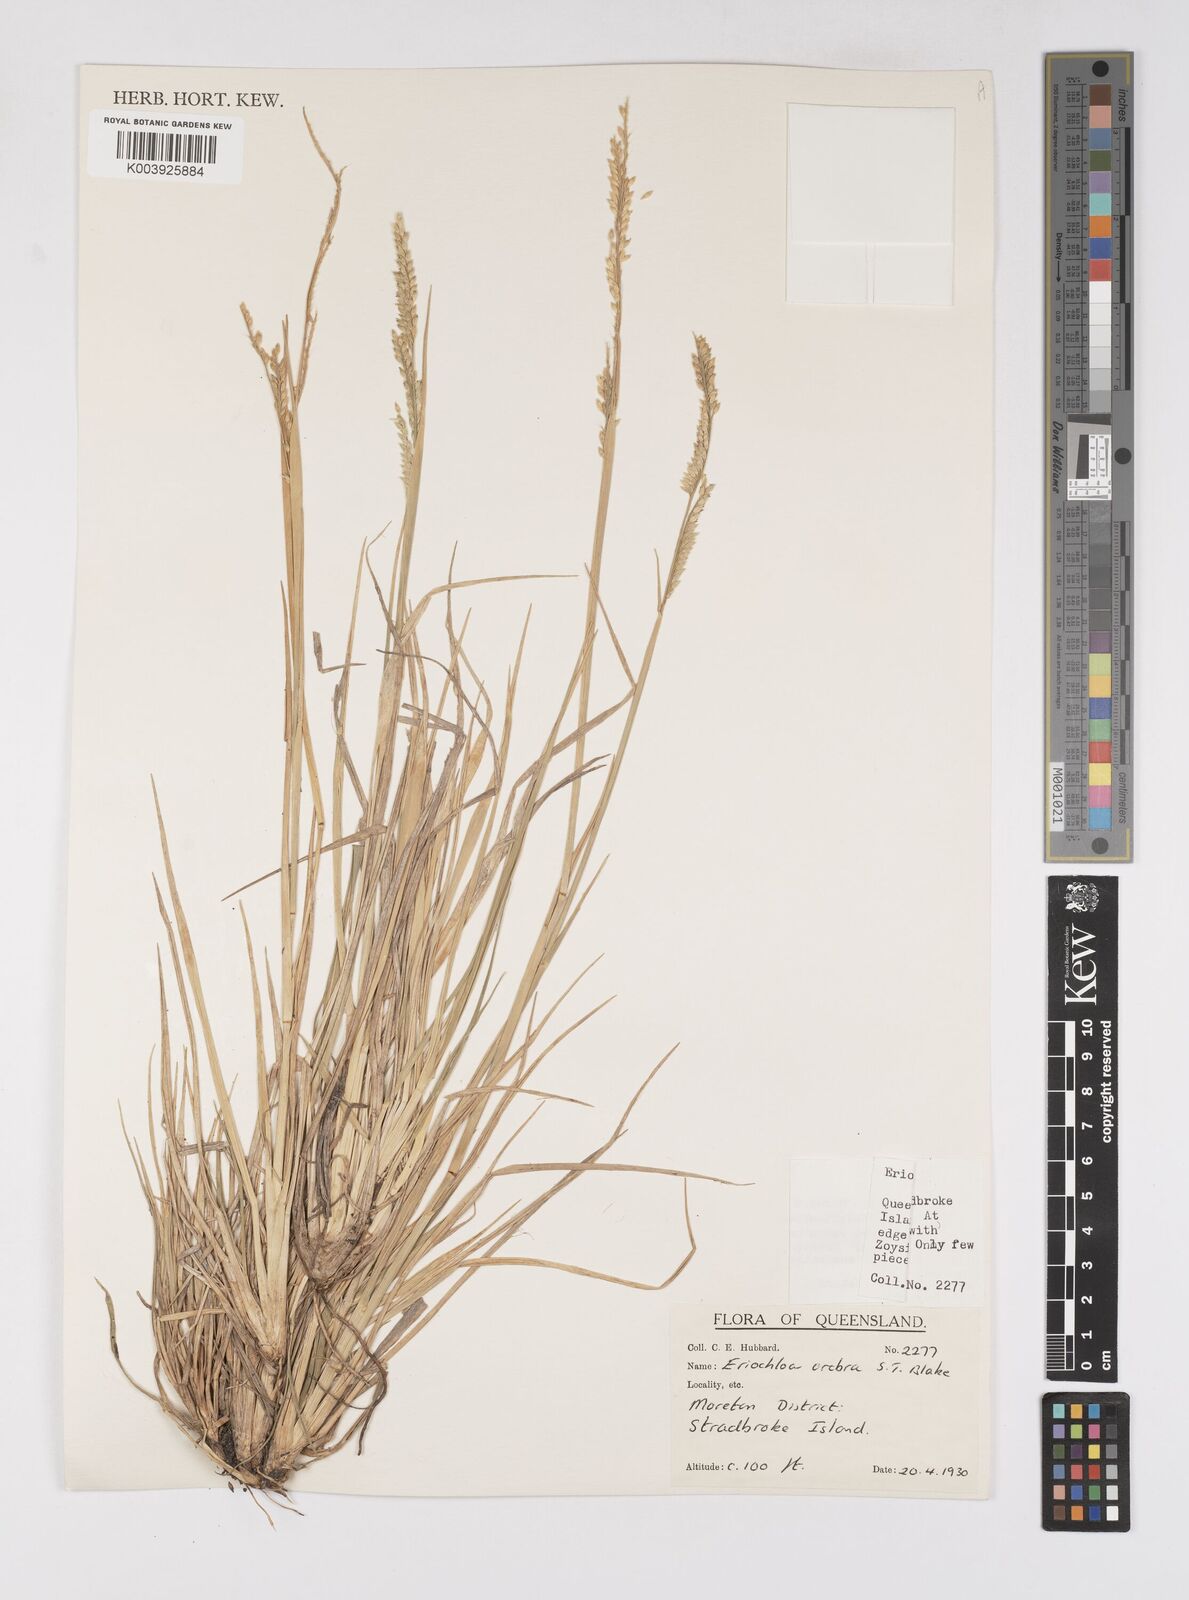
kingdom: Plantae
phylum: Tracheophyta
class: Liliopsida
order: Poales
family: Poaceae
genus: Eriochloa
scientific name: Eriochloa crebra
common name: Cup grass
